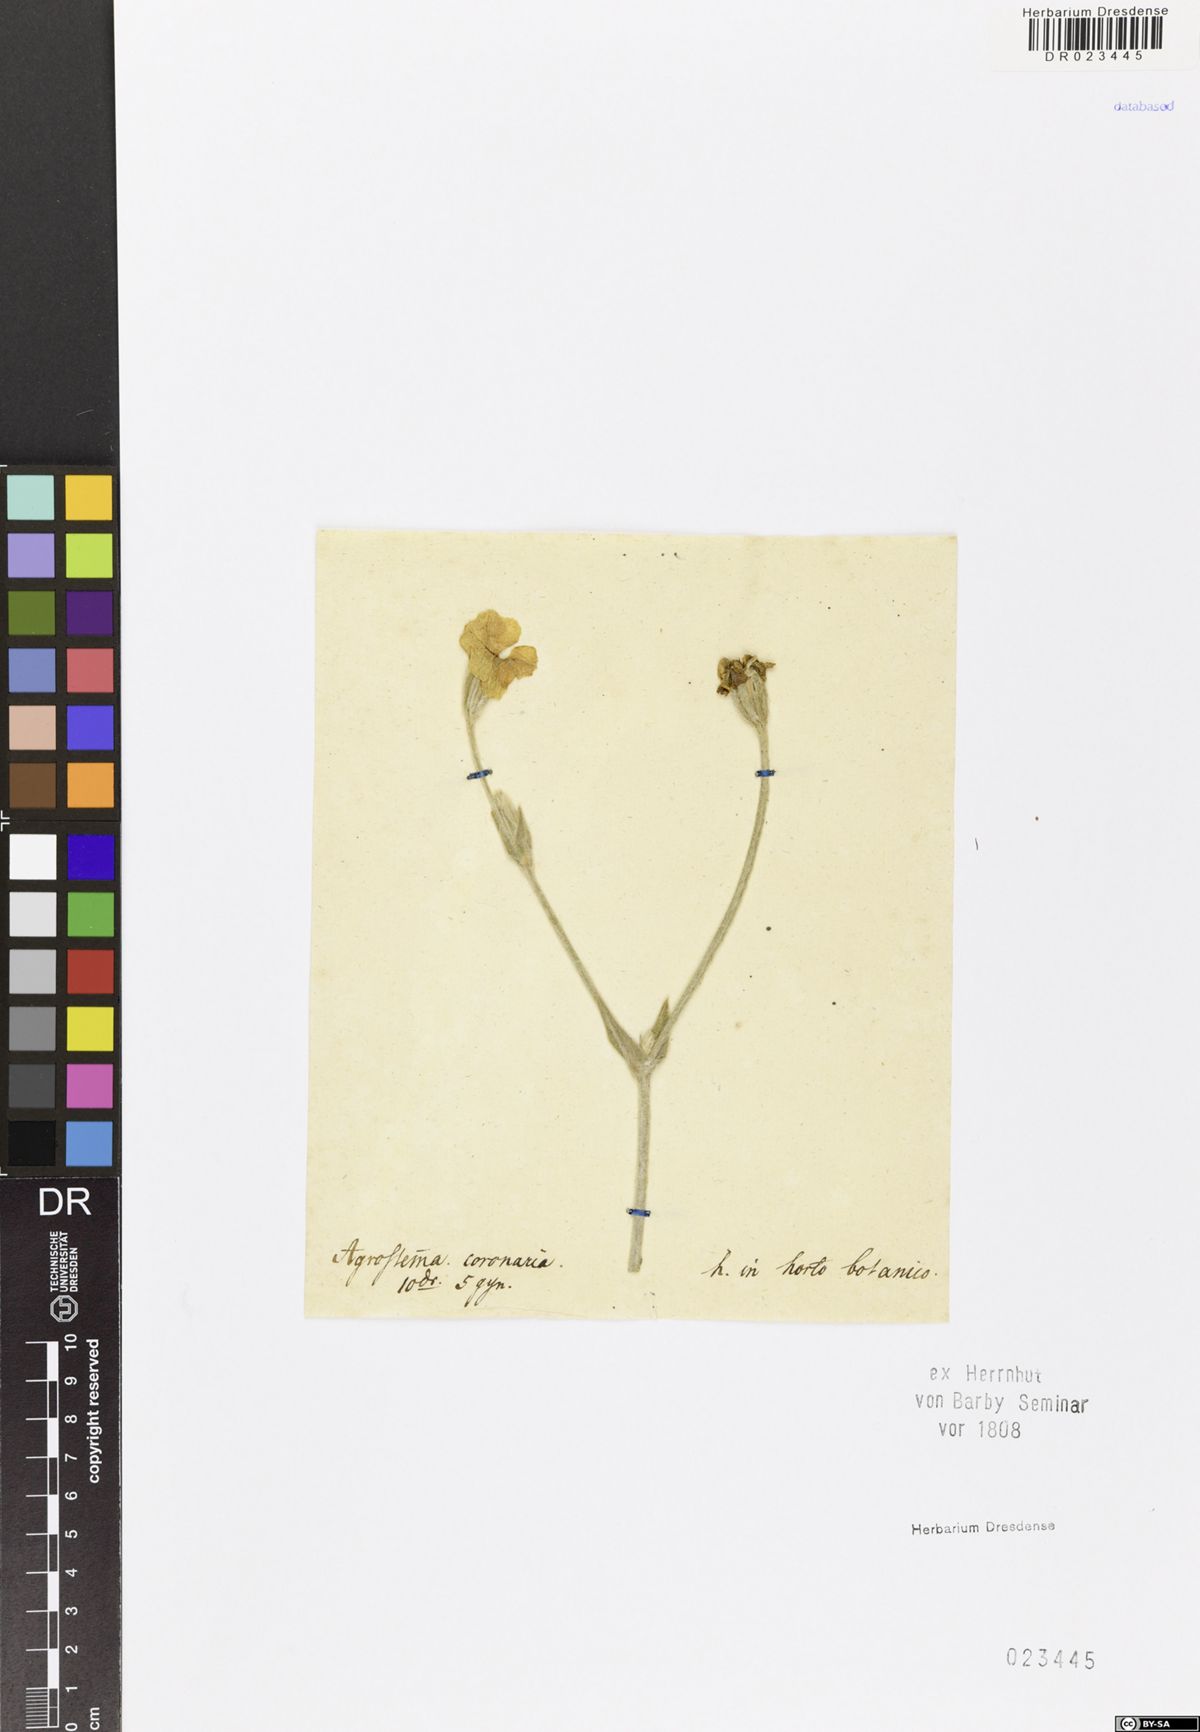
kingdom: Plantae
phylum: Tracheophyta
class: Magnoliopsida
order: Caryophyllales
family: Caryophyllaceae
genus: Silene
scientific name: Silene coronaria
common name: Rose campion
